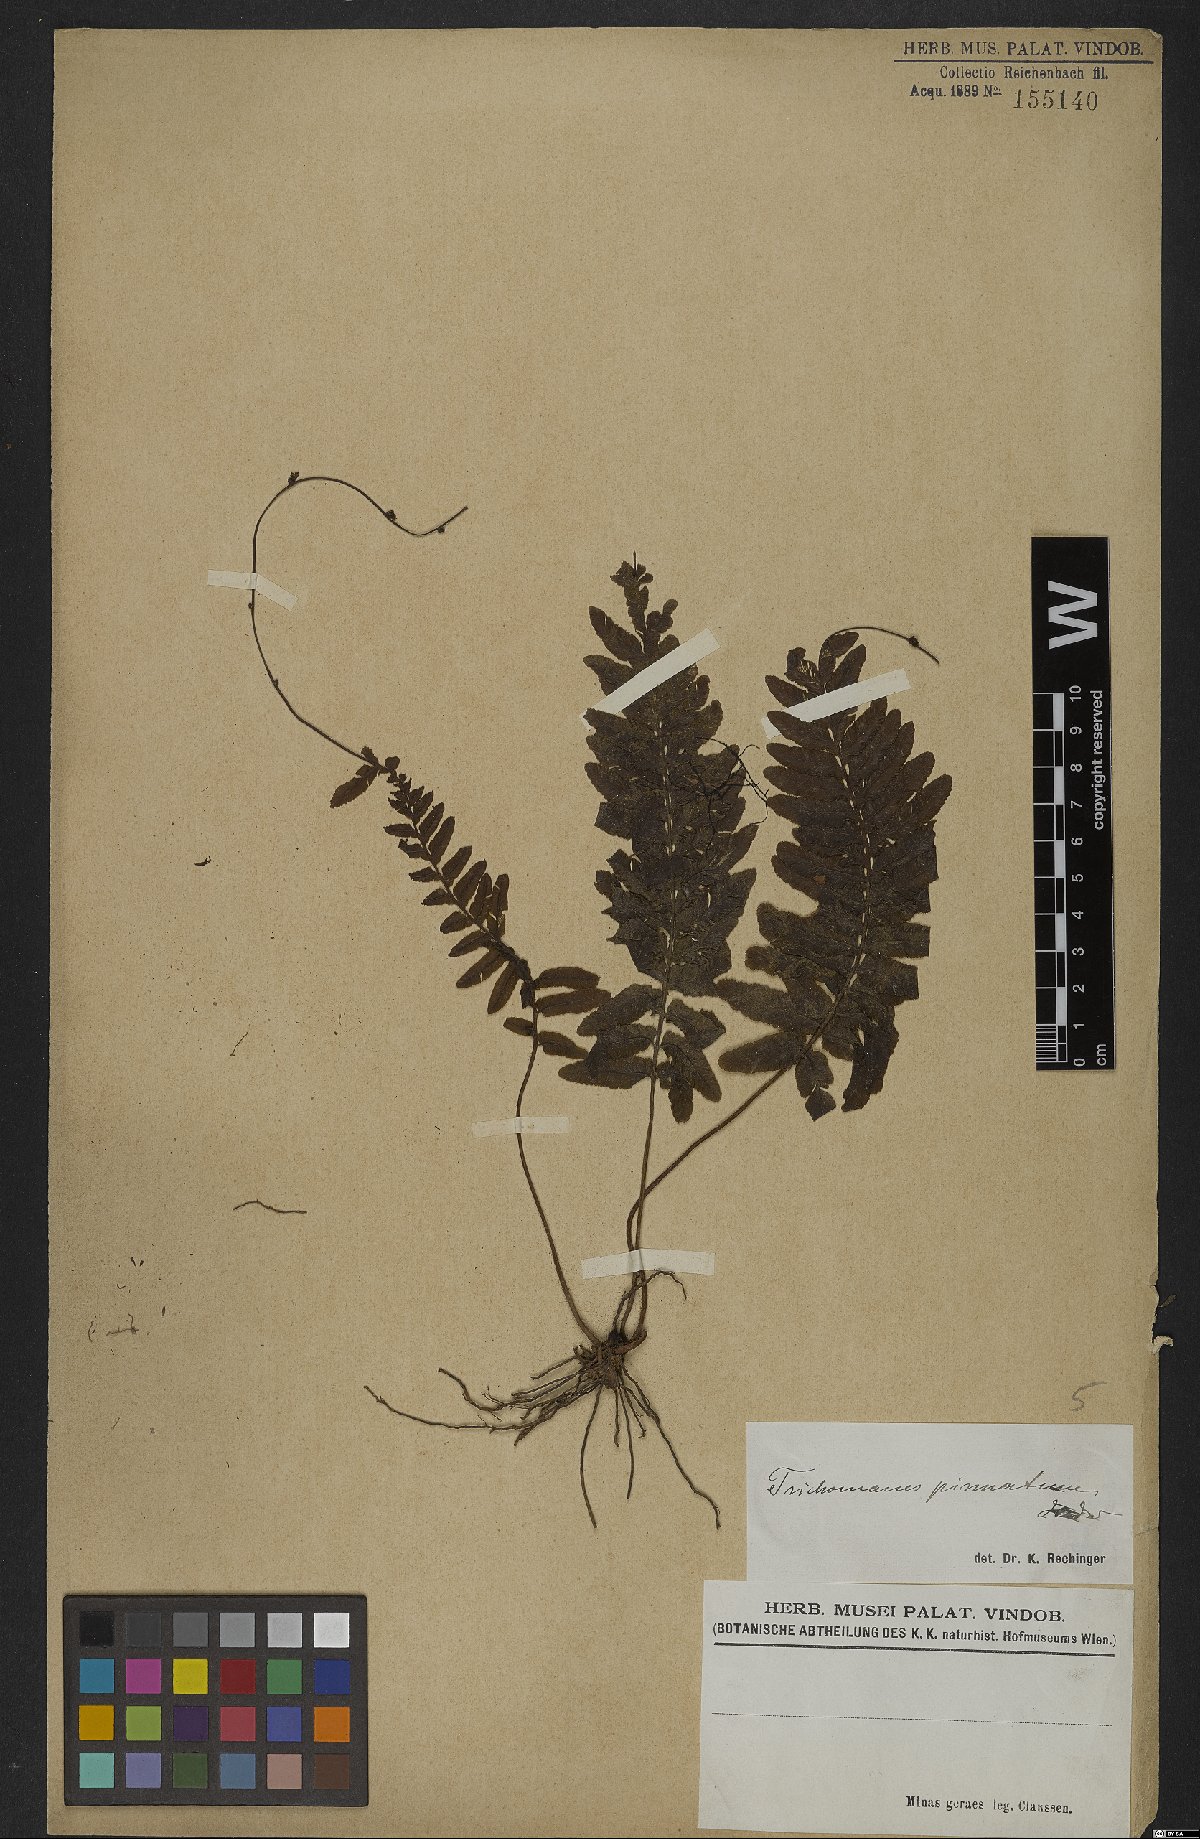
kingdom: Plantae
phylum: Tracheophyta
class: Polypodiopsida
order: Hymenophyllales
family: Hymenophyllaceae
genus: Trichomanes
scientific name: Trichomanes pinnatum
